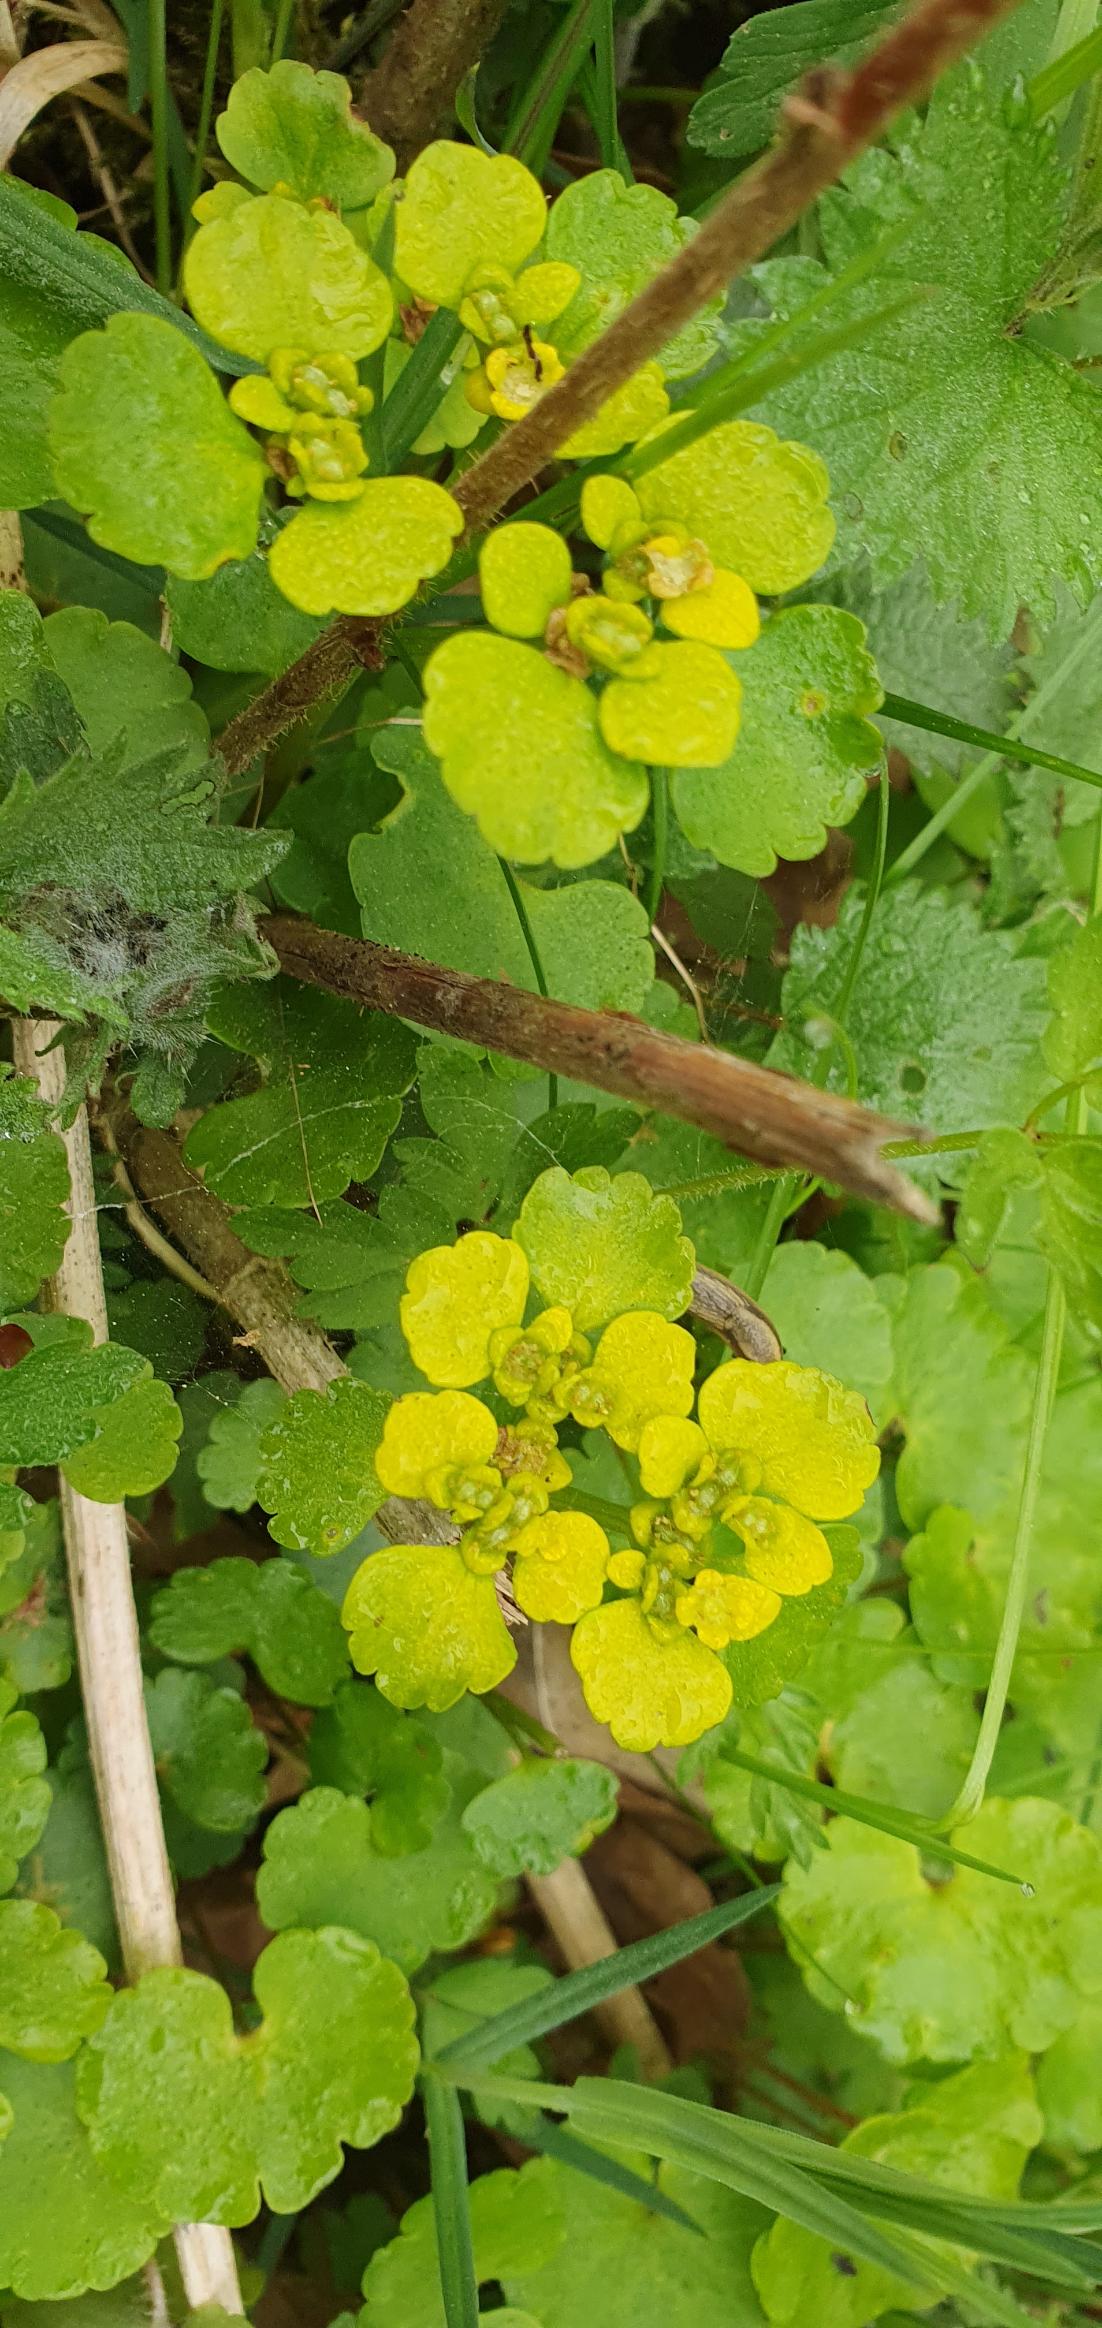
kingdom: Plantae
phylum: Tracheophyta
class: Magnoliopsida
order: Saxifragales
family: Saxifragaceae
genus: Chrysosplenium
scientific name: Chrysosplenium alternifolium
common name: Almindelig milturt
